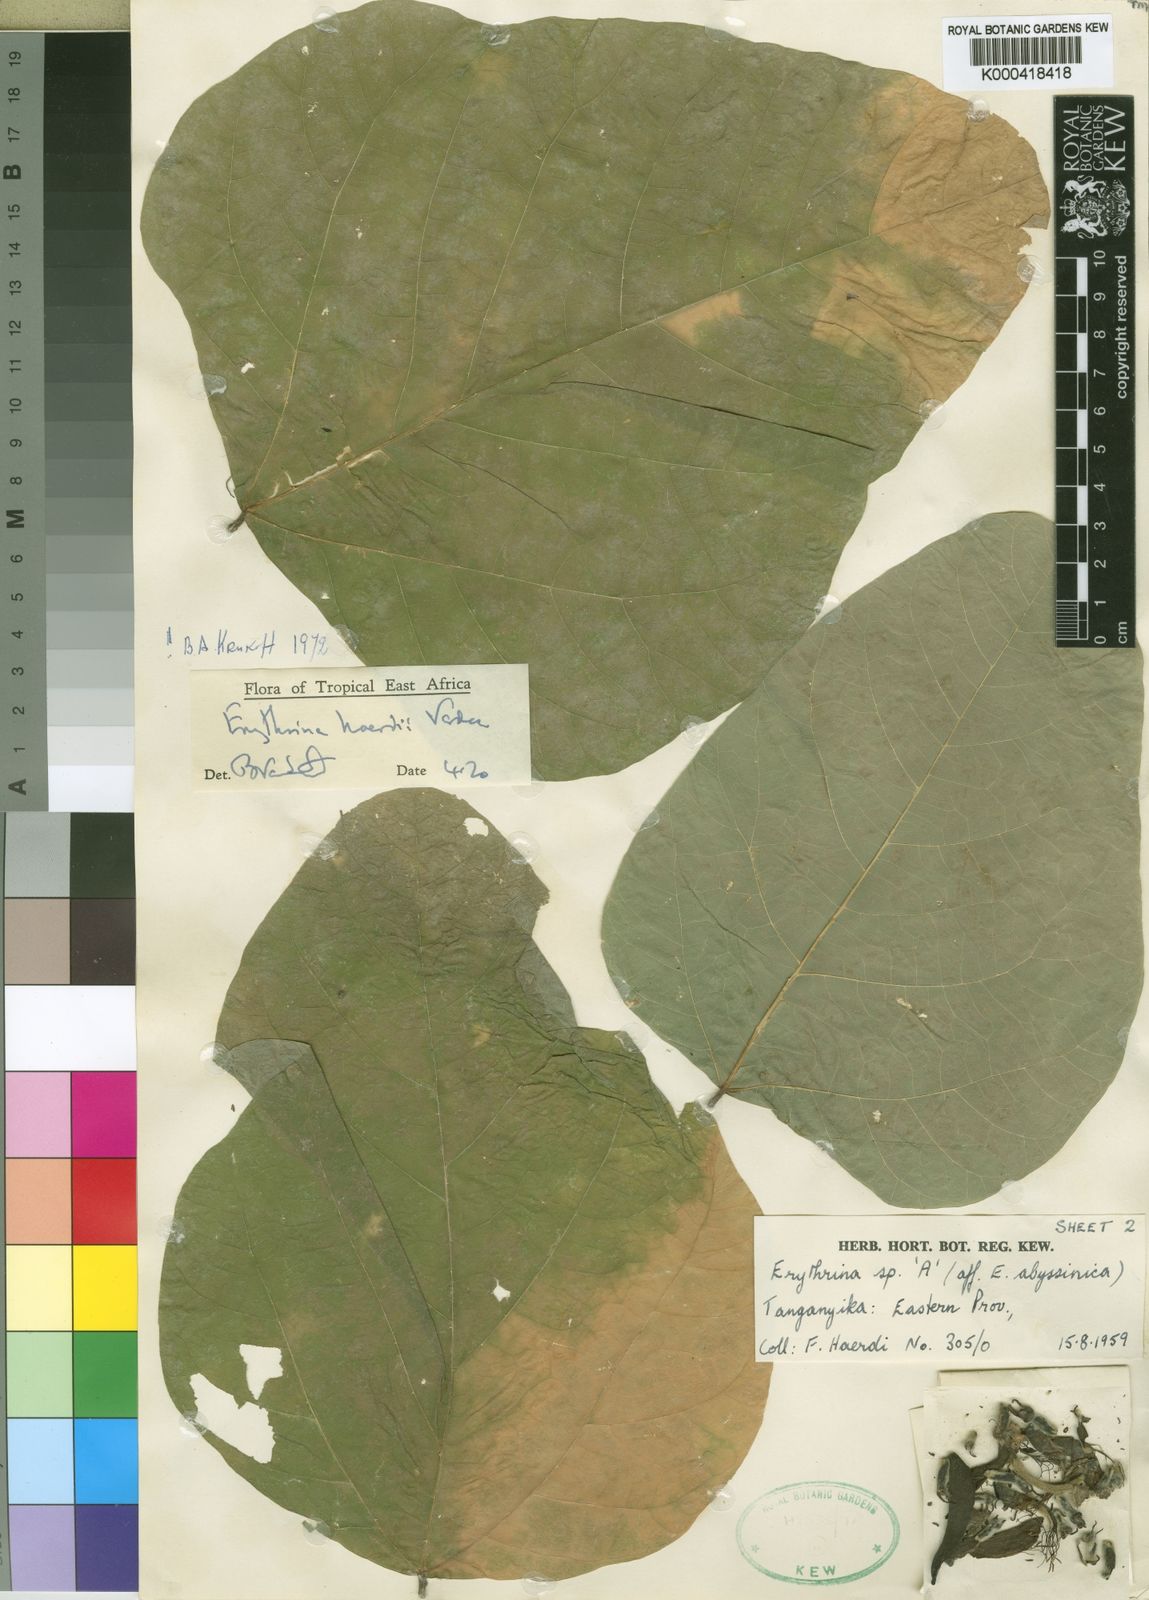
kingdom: Plantae
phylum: Tracheophyta
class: Magnoliopsida
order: Fabales
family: Fabaceae
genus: Erythrina
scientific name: Erythrina haerdii
